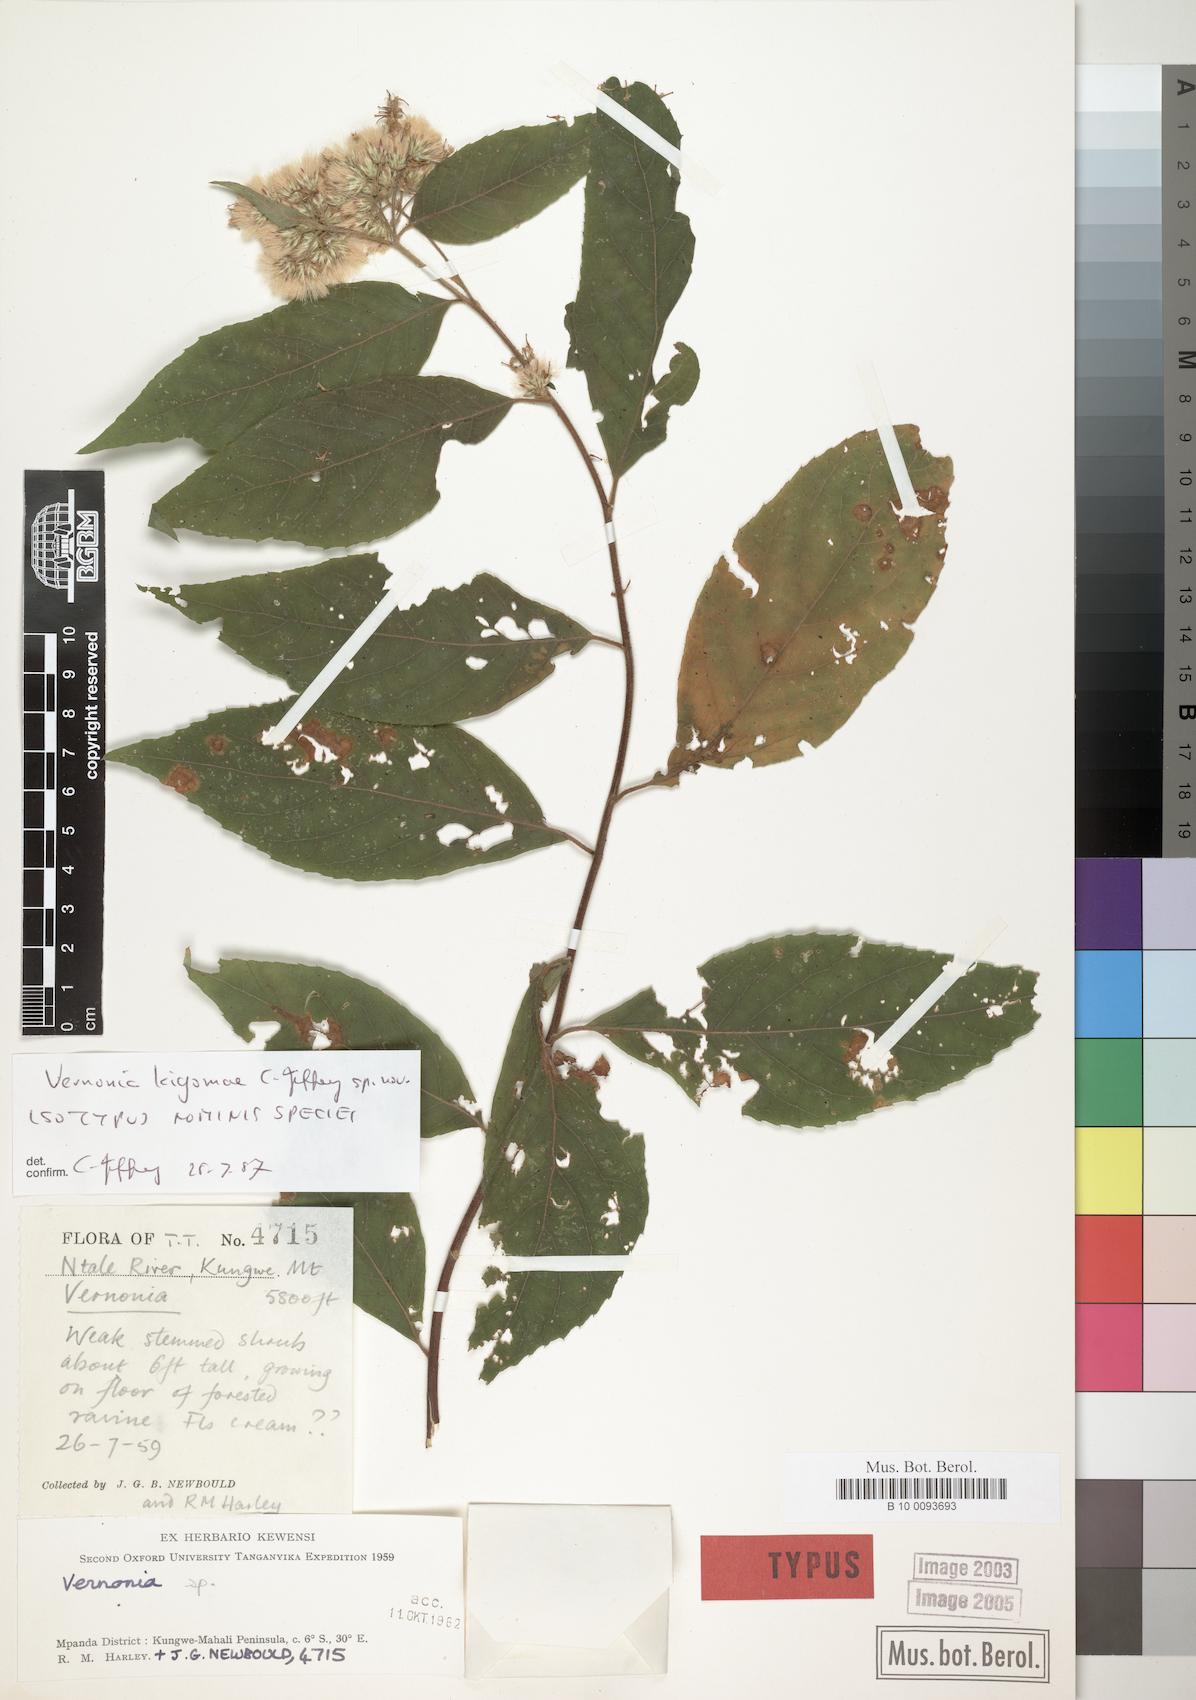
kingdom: Plantae
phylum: Tracheophyta
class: Magnoliopsida
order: Asterales
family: Asteraceae
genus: Vernonia
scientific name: Vernonia
